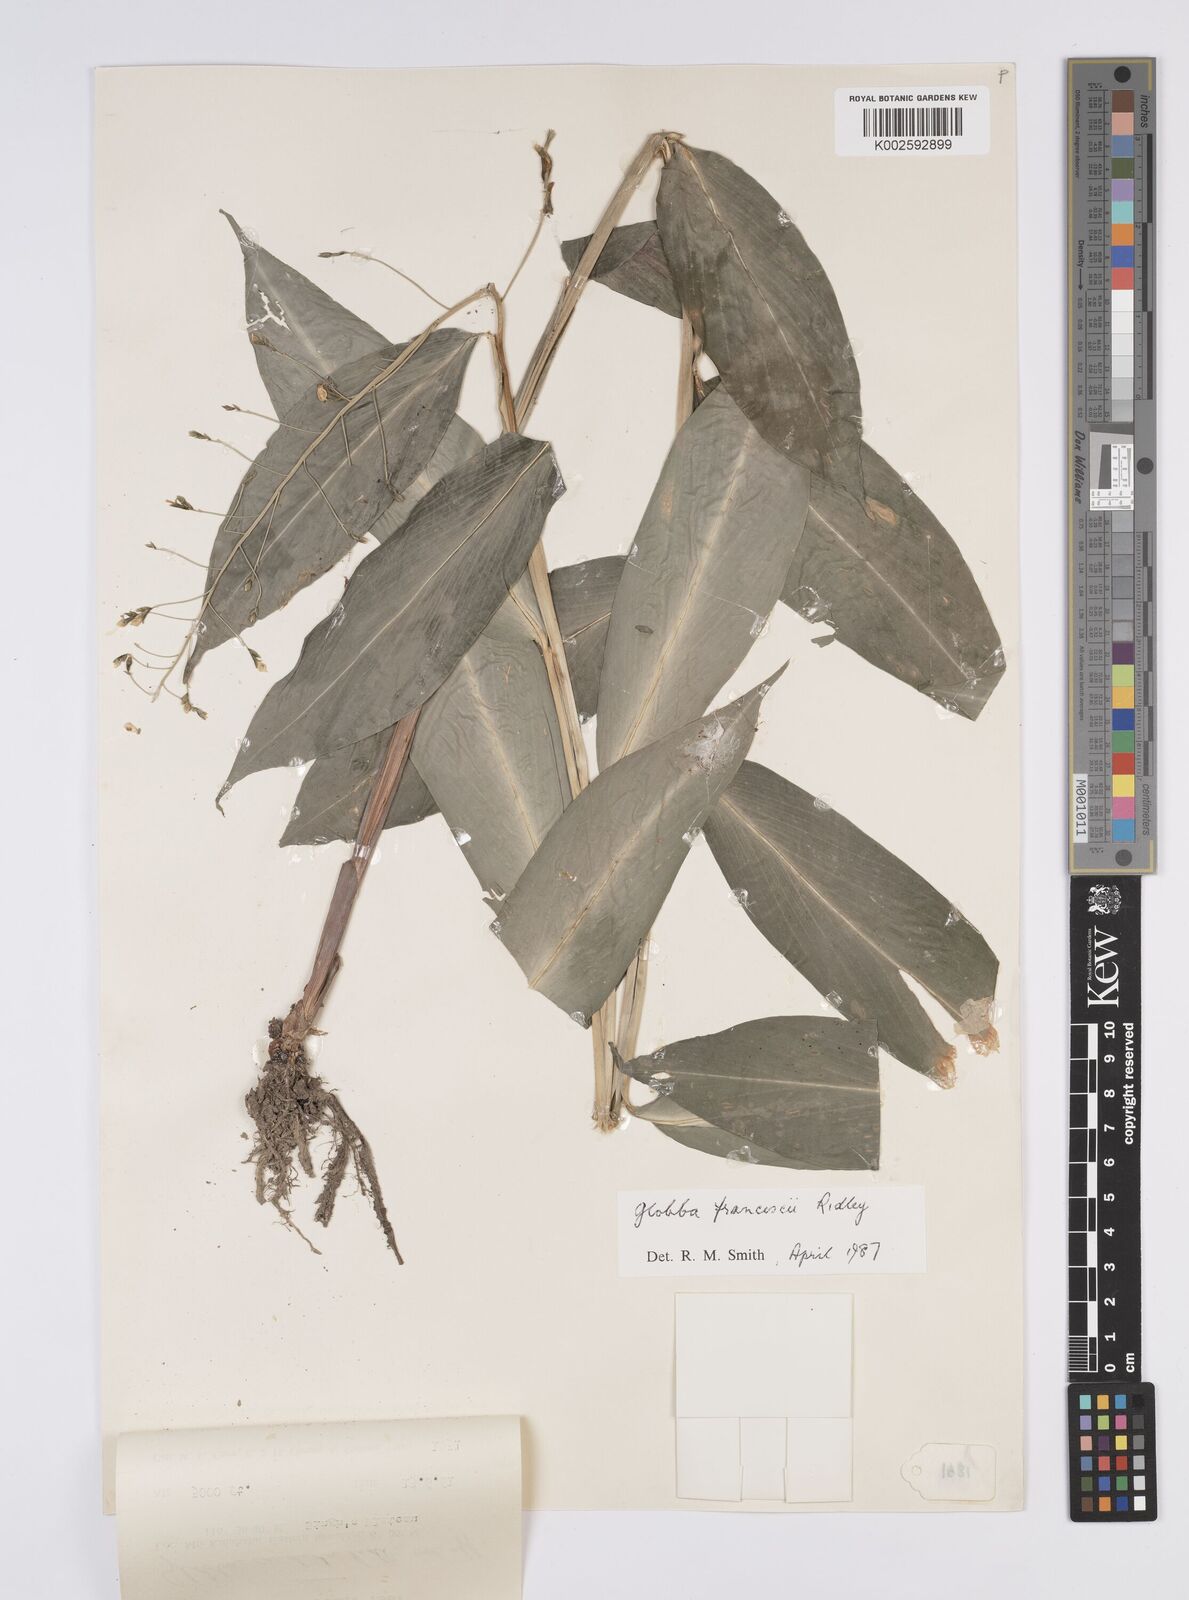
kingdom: Plantae
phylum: Tracheophyta
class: Liliopsida
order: Zingiberales
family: Zingiberaceae
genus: Globba
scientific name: Globba francisci
